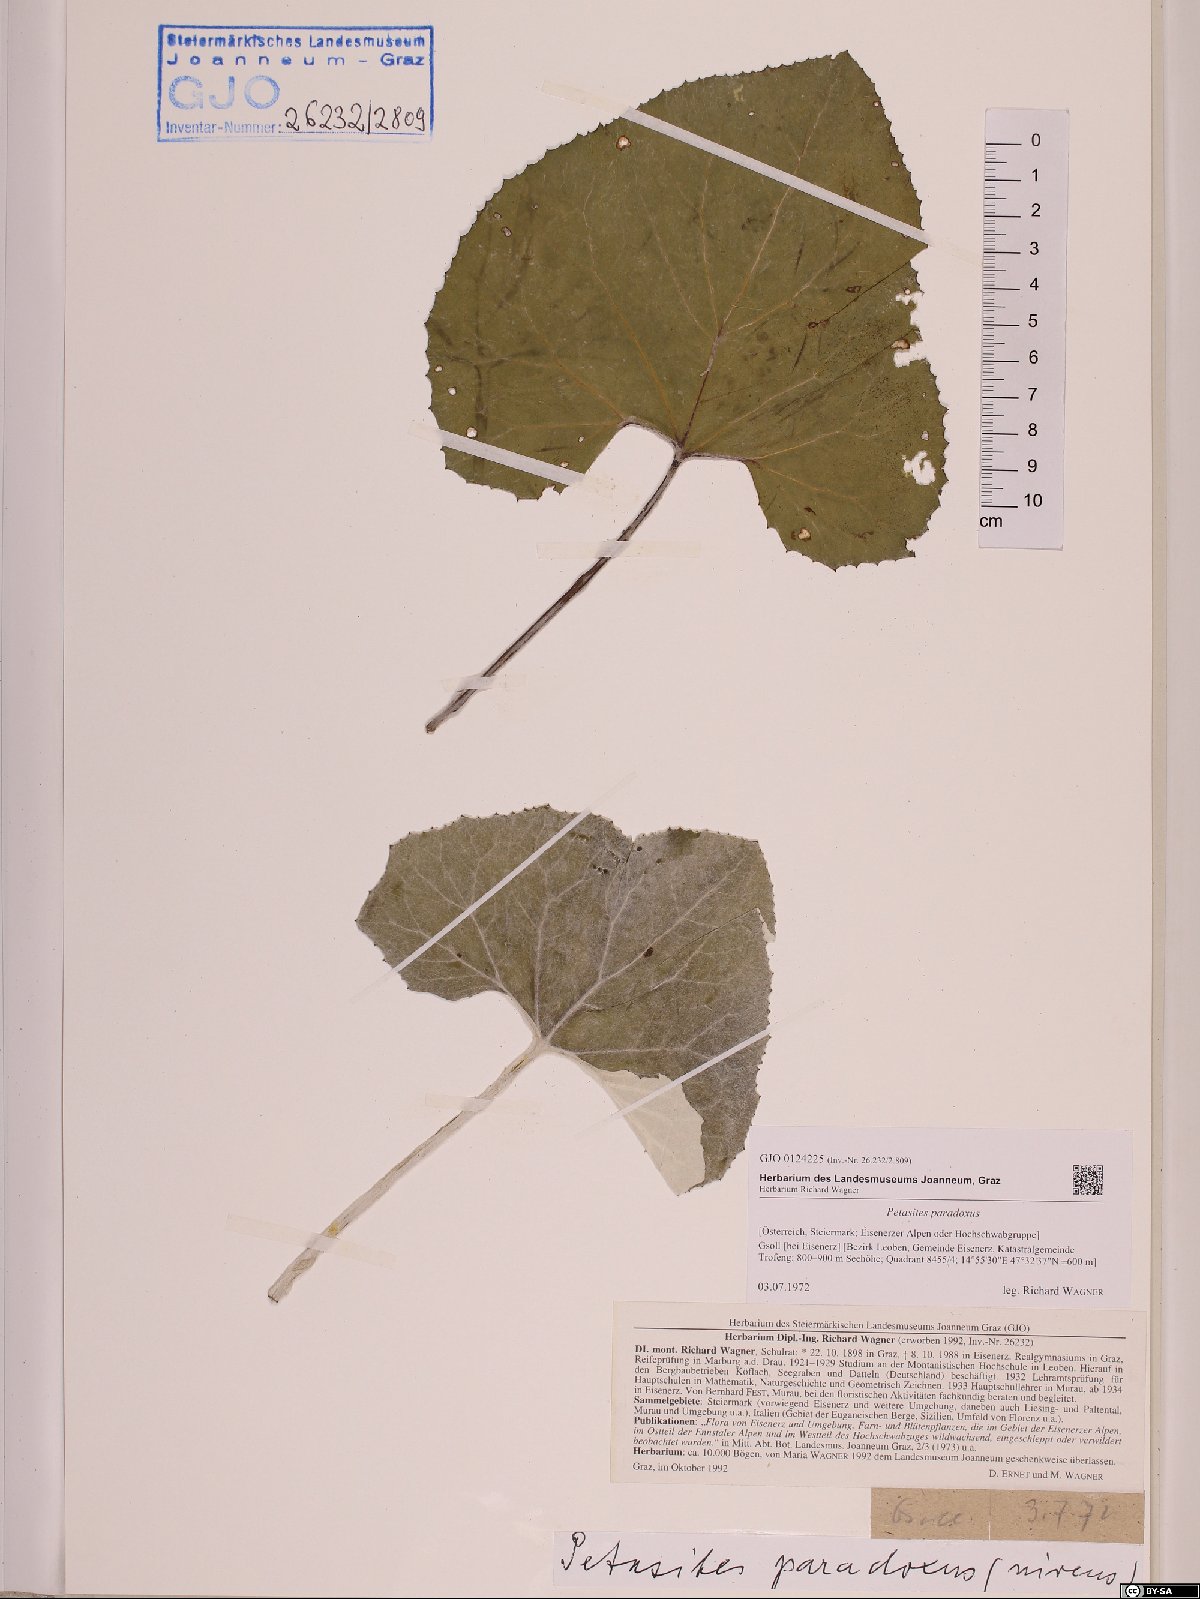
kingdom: Plantae
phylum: Tracheophyta
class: Magnoliopsida
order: Asterales
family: Asteraceae
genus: Petasites
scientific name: Petasites paradoxus
